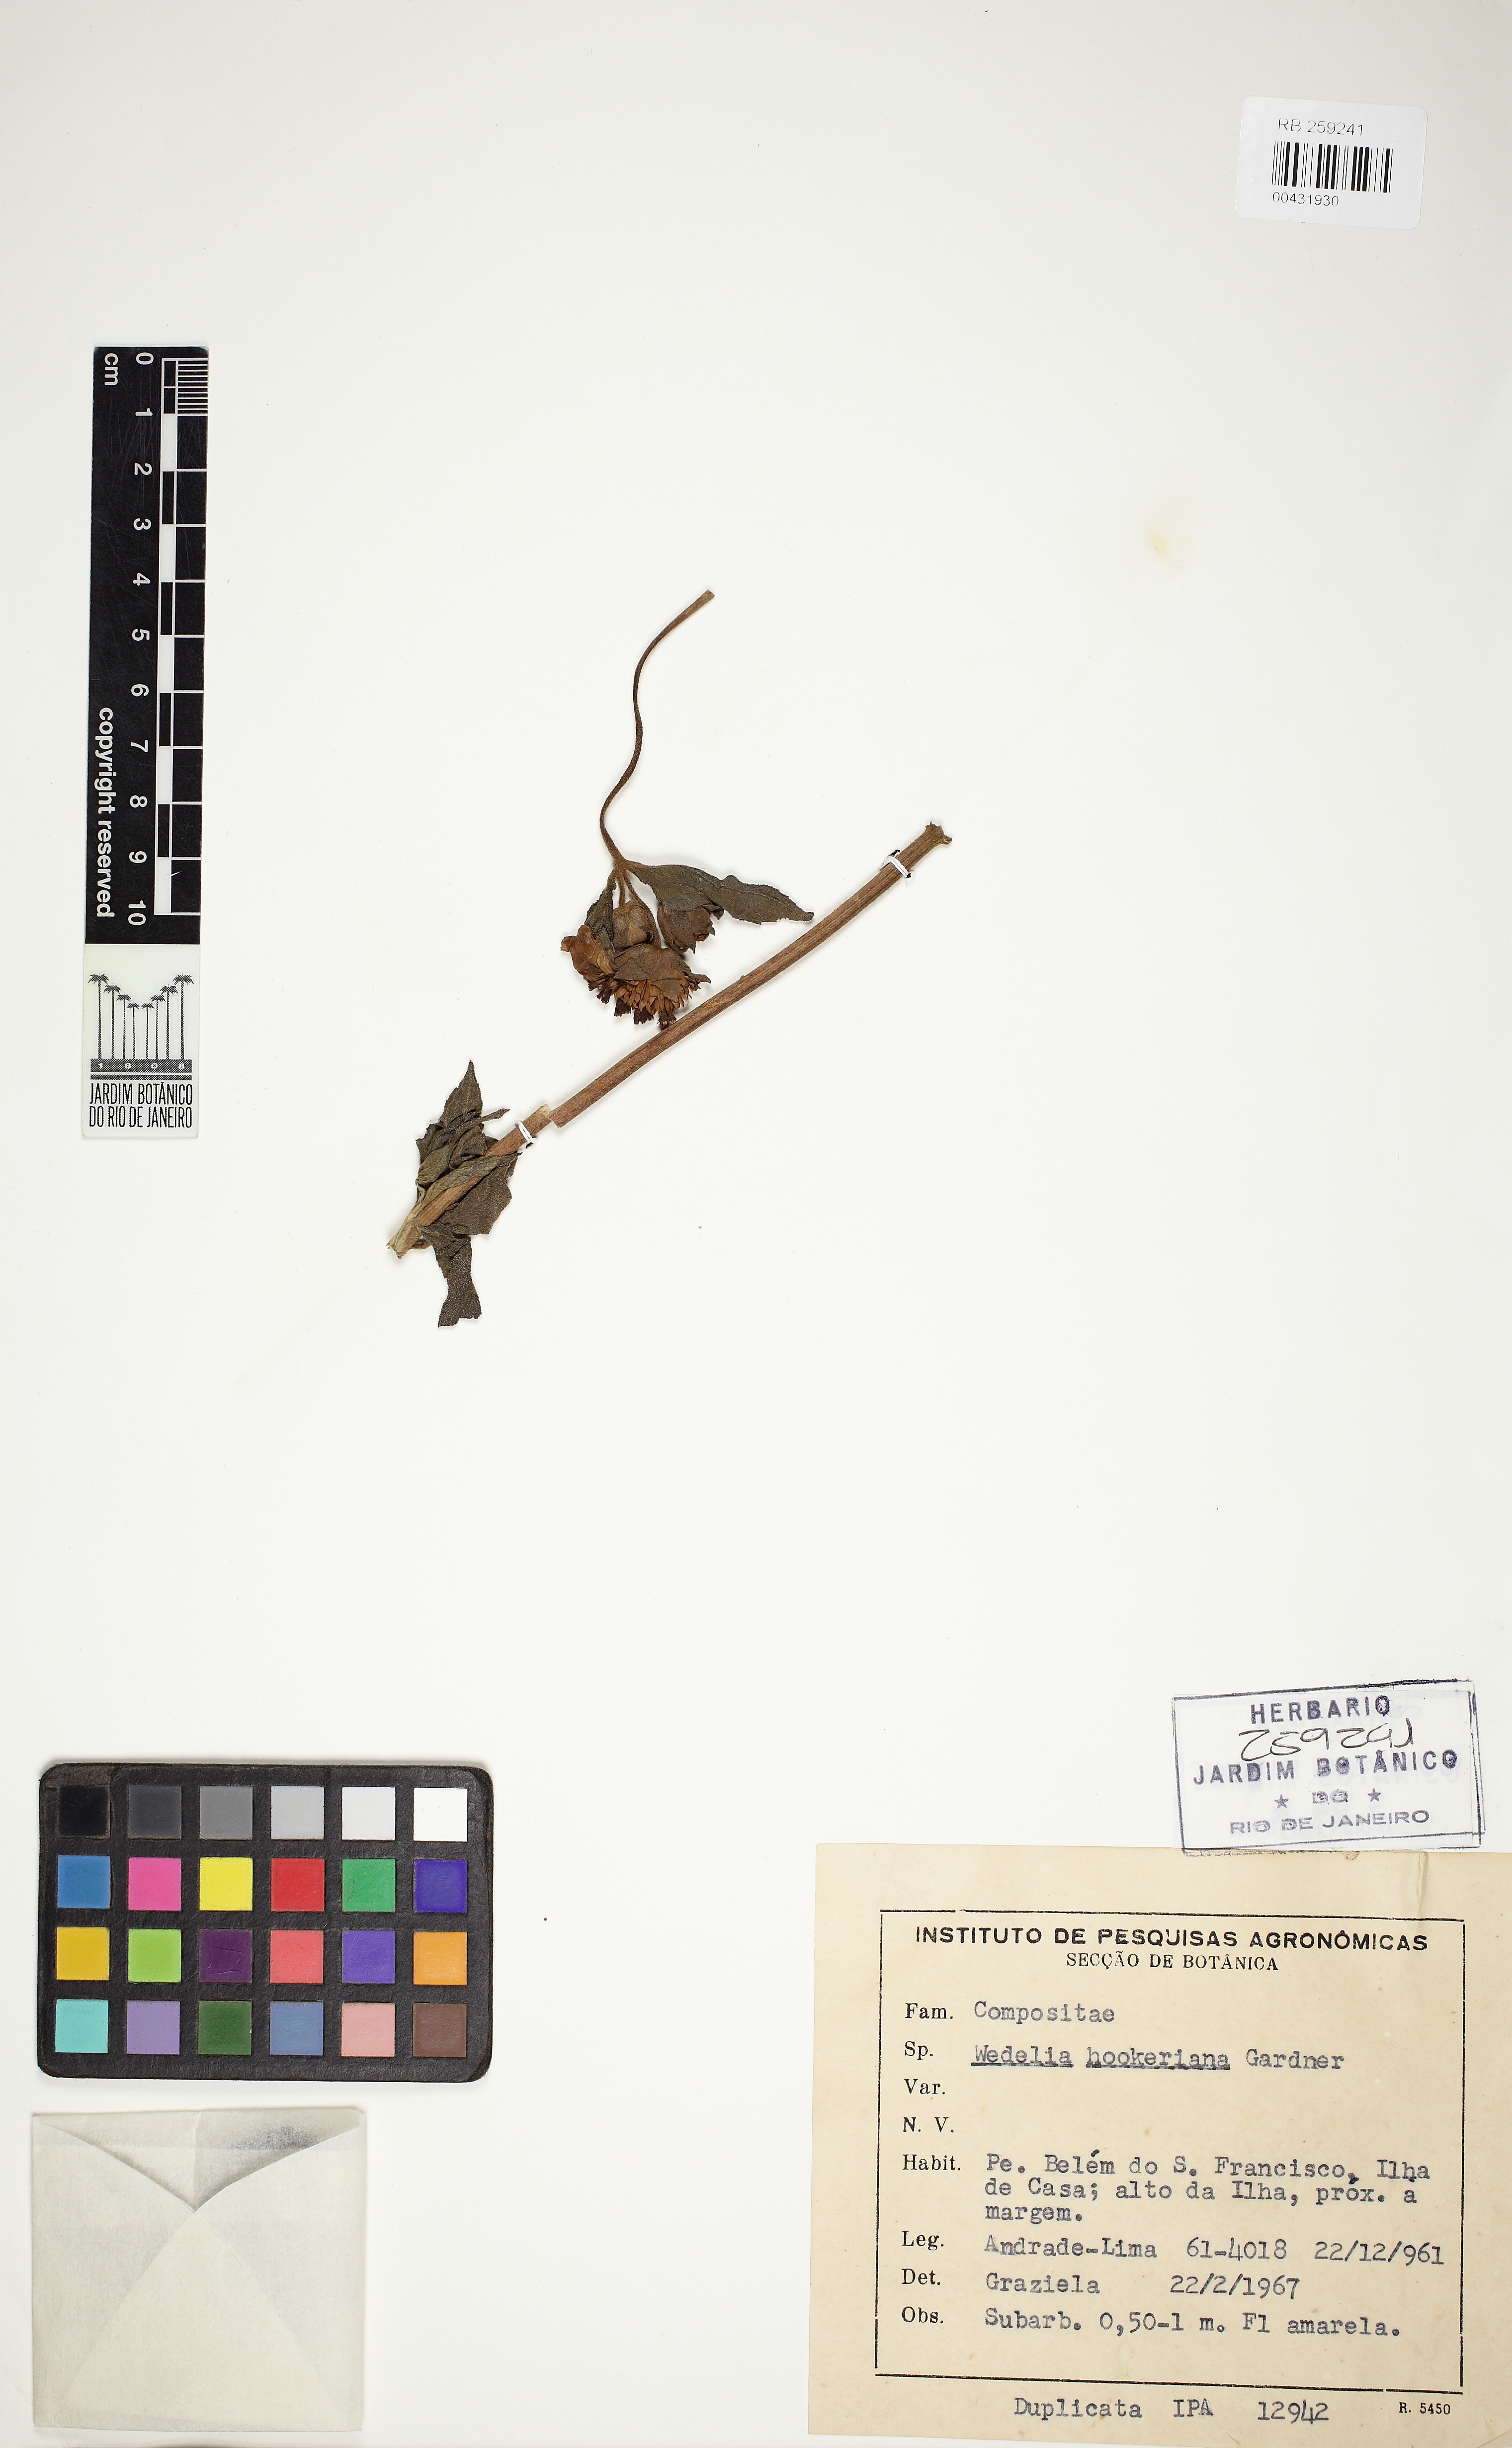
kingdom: Plantae
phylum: Tracheophyta
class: Magnoliopsida
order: Asterales
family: Asteraceae
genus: Wedelia
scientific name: Wedelia hookeriana
